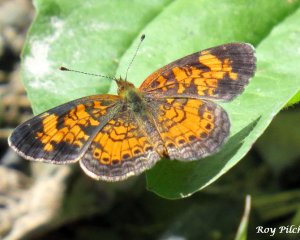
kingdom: Animalia
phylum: Arthropoda
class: Insecta
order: Lepidoptera
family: Nymphalidae
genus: Phyciodes
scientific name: Phyciodes tharos
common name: Pearl Crescent
